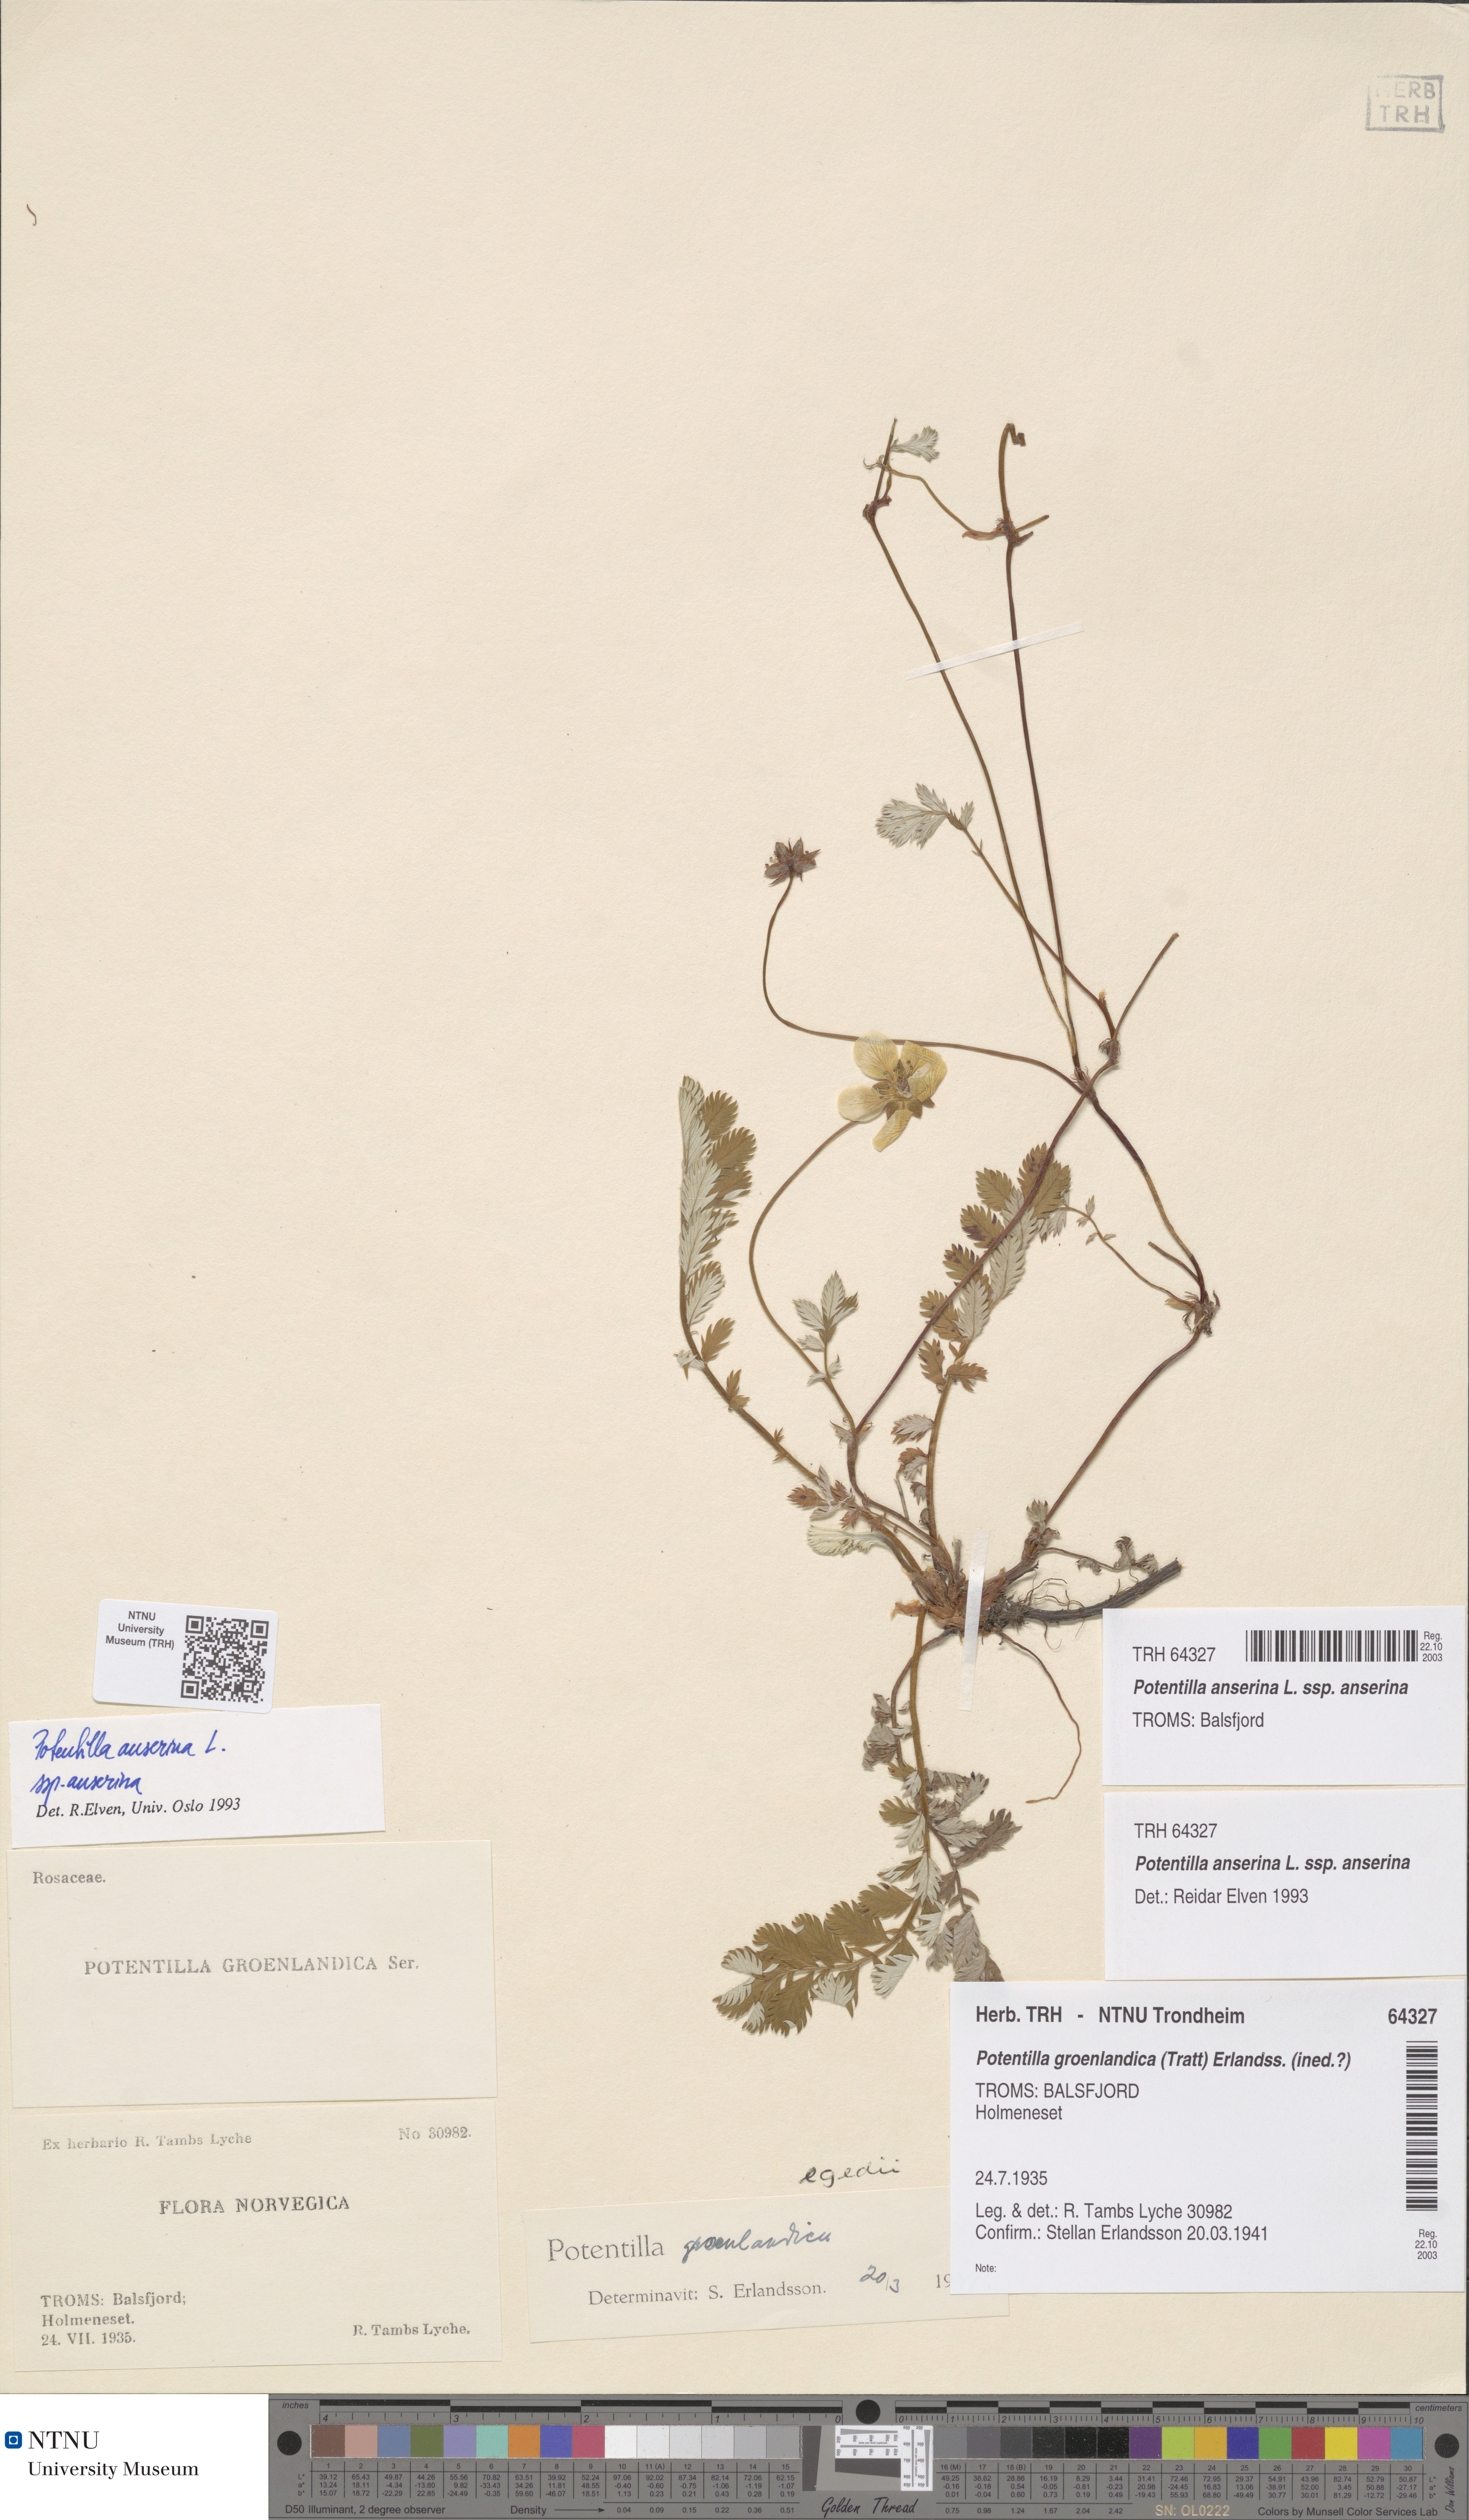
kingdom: Plantae
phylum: Tracheophyta
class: Magnoliopsida
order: Rosales
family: Rosaceae
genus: Argentina
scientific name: Argentina anserina
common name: Common silverweed
